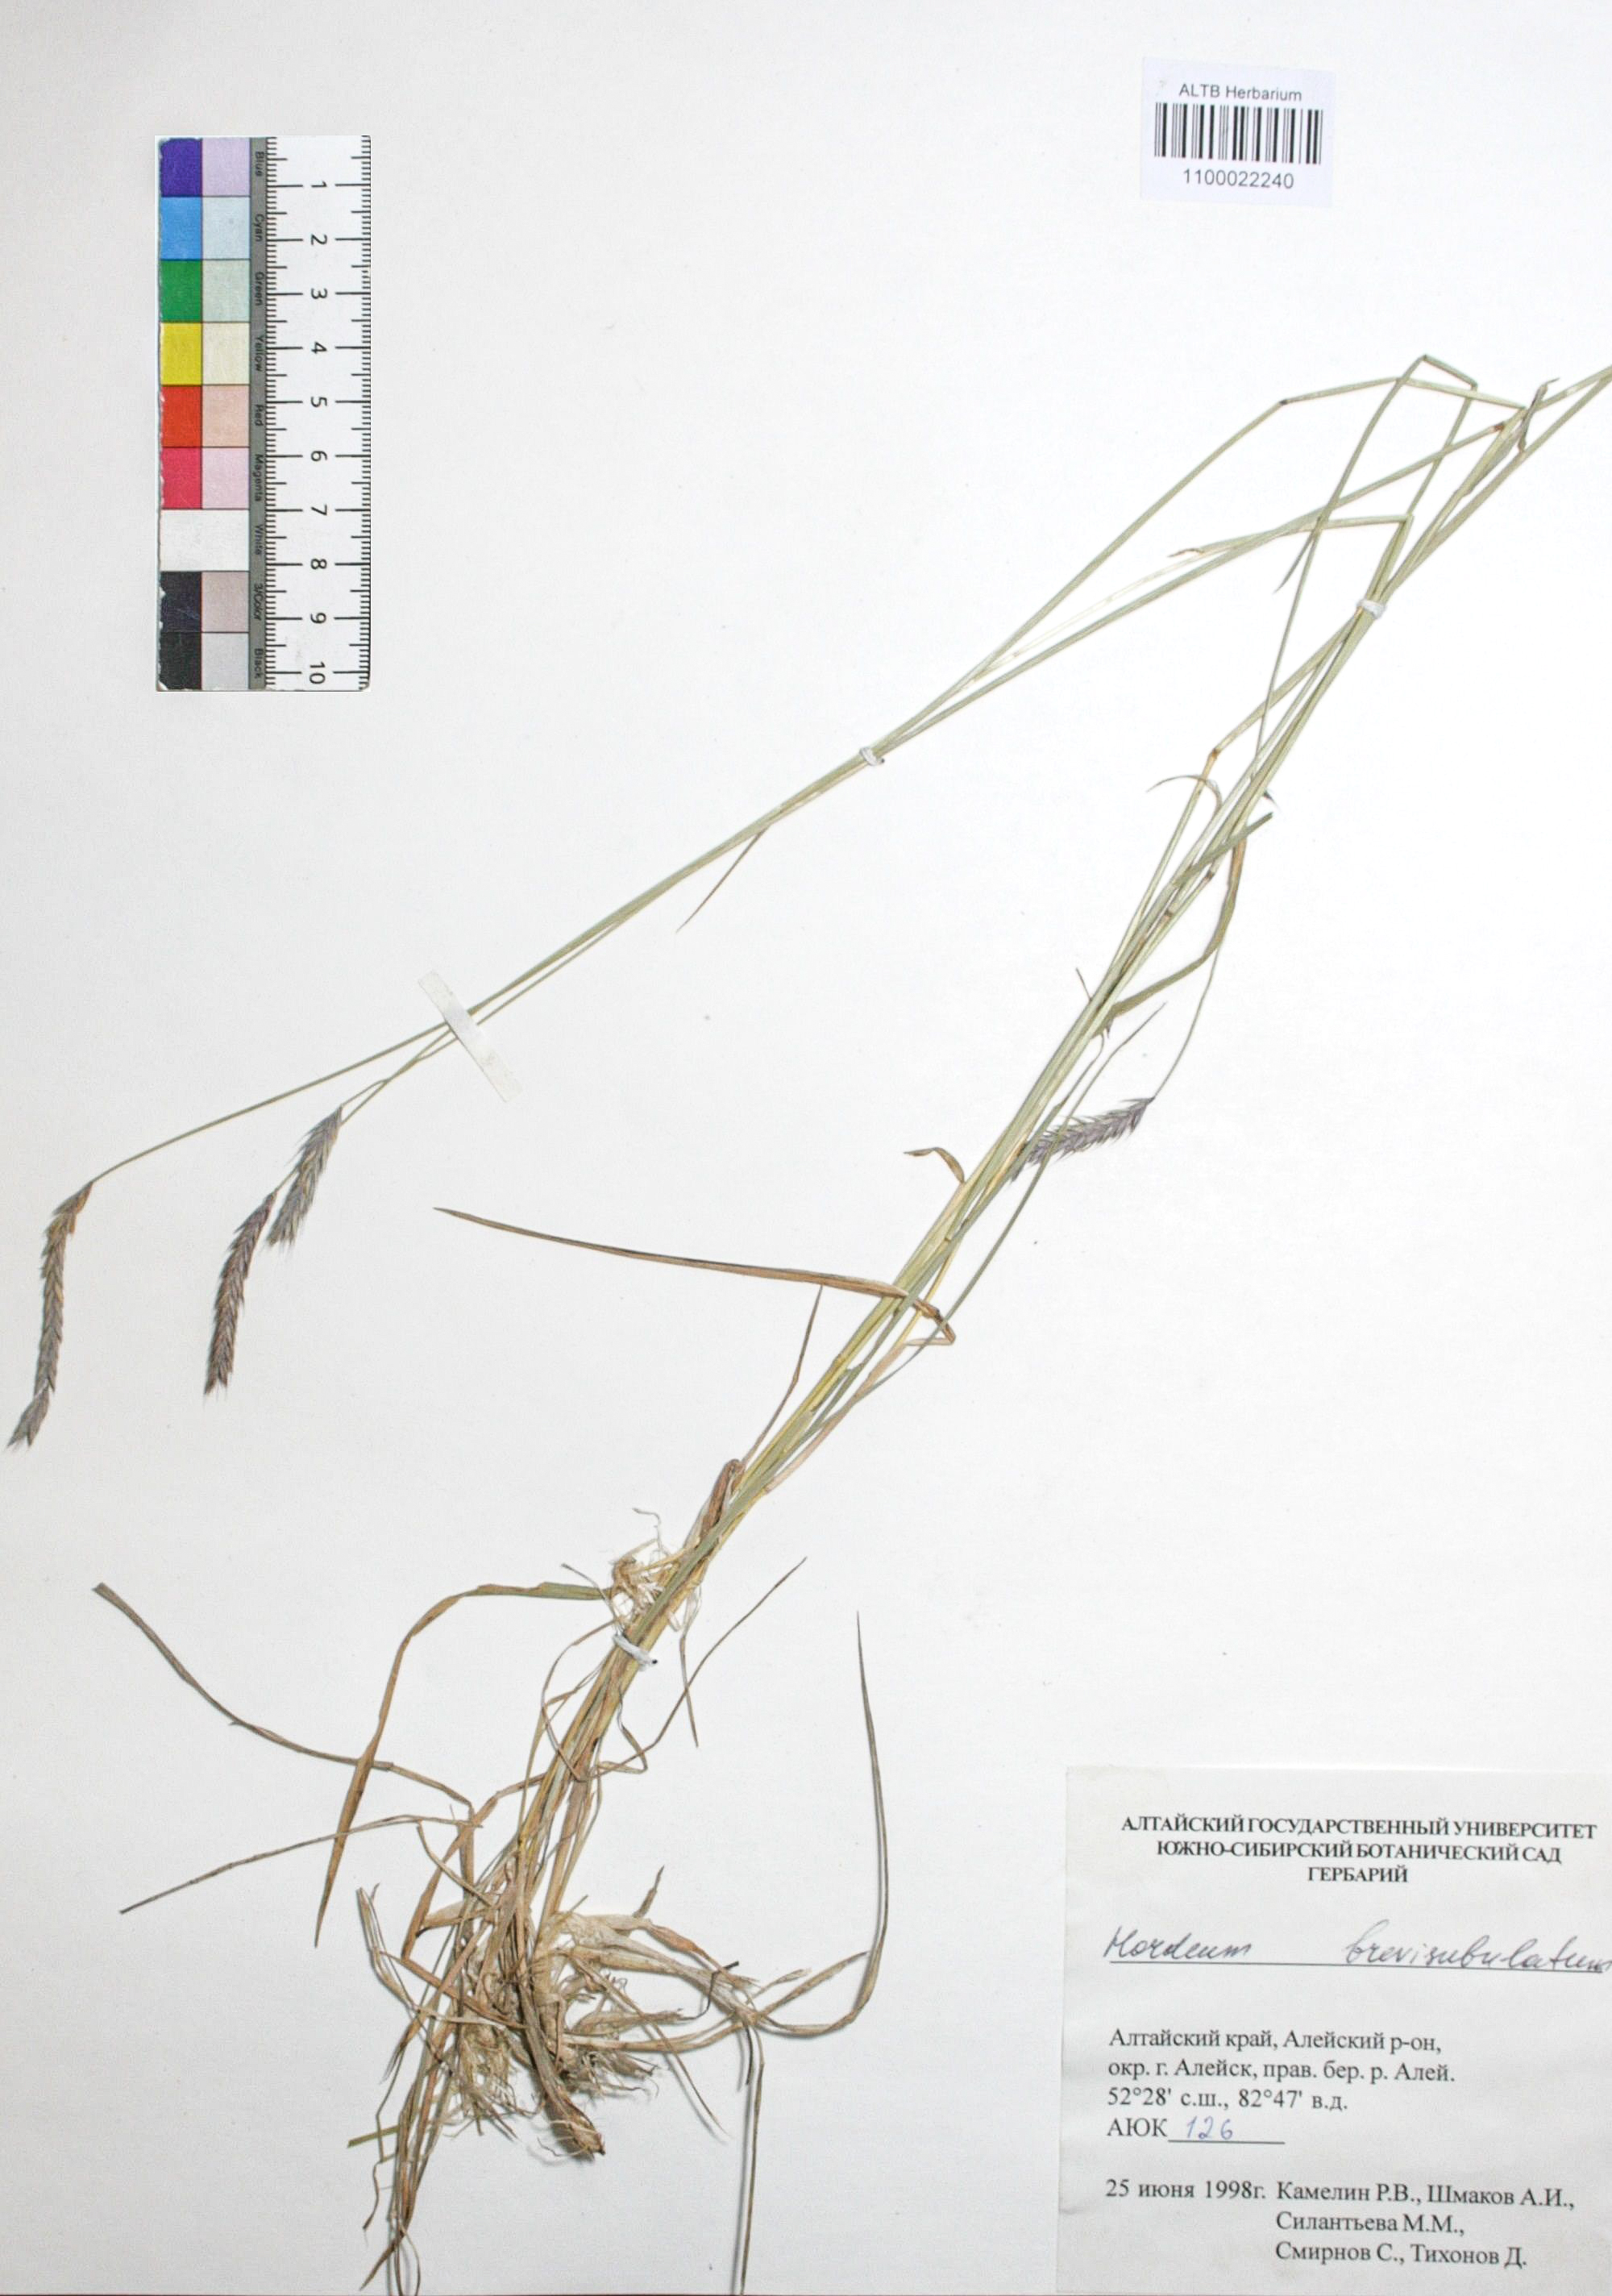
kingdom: Plantae
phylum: Tracheophyta
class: Liliopsida
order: Poales
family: Poaceae
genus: Hordeum
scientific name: Hordeum brevisubulatum
